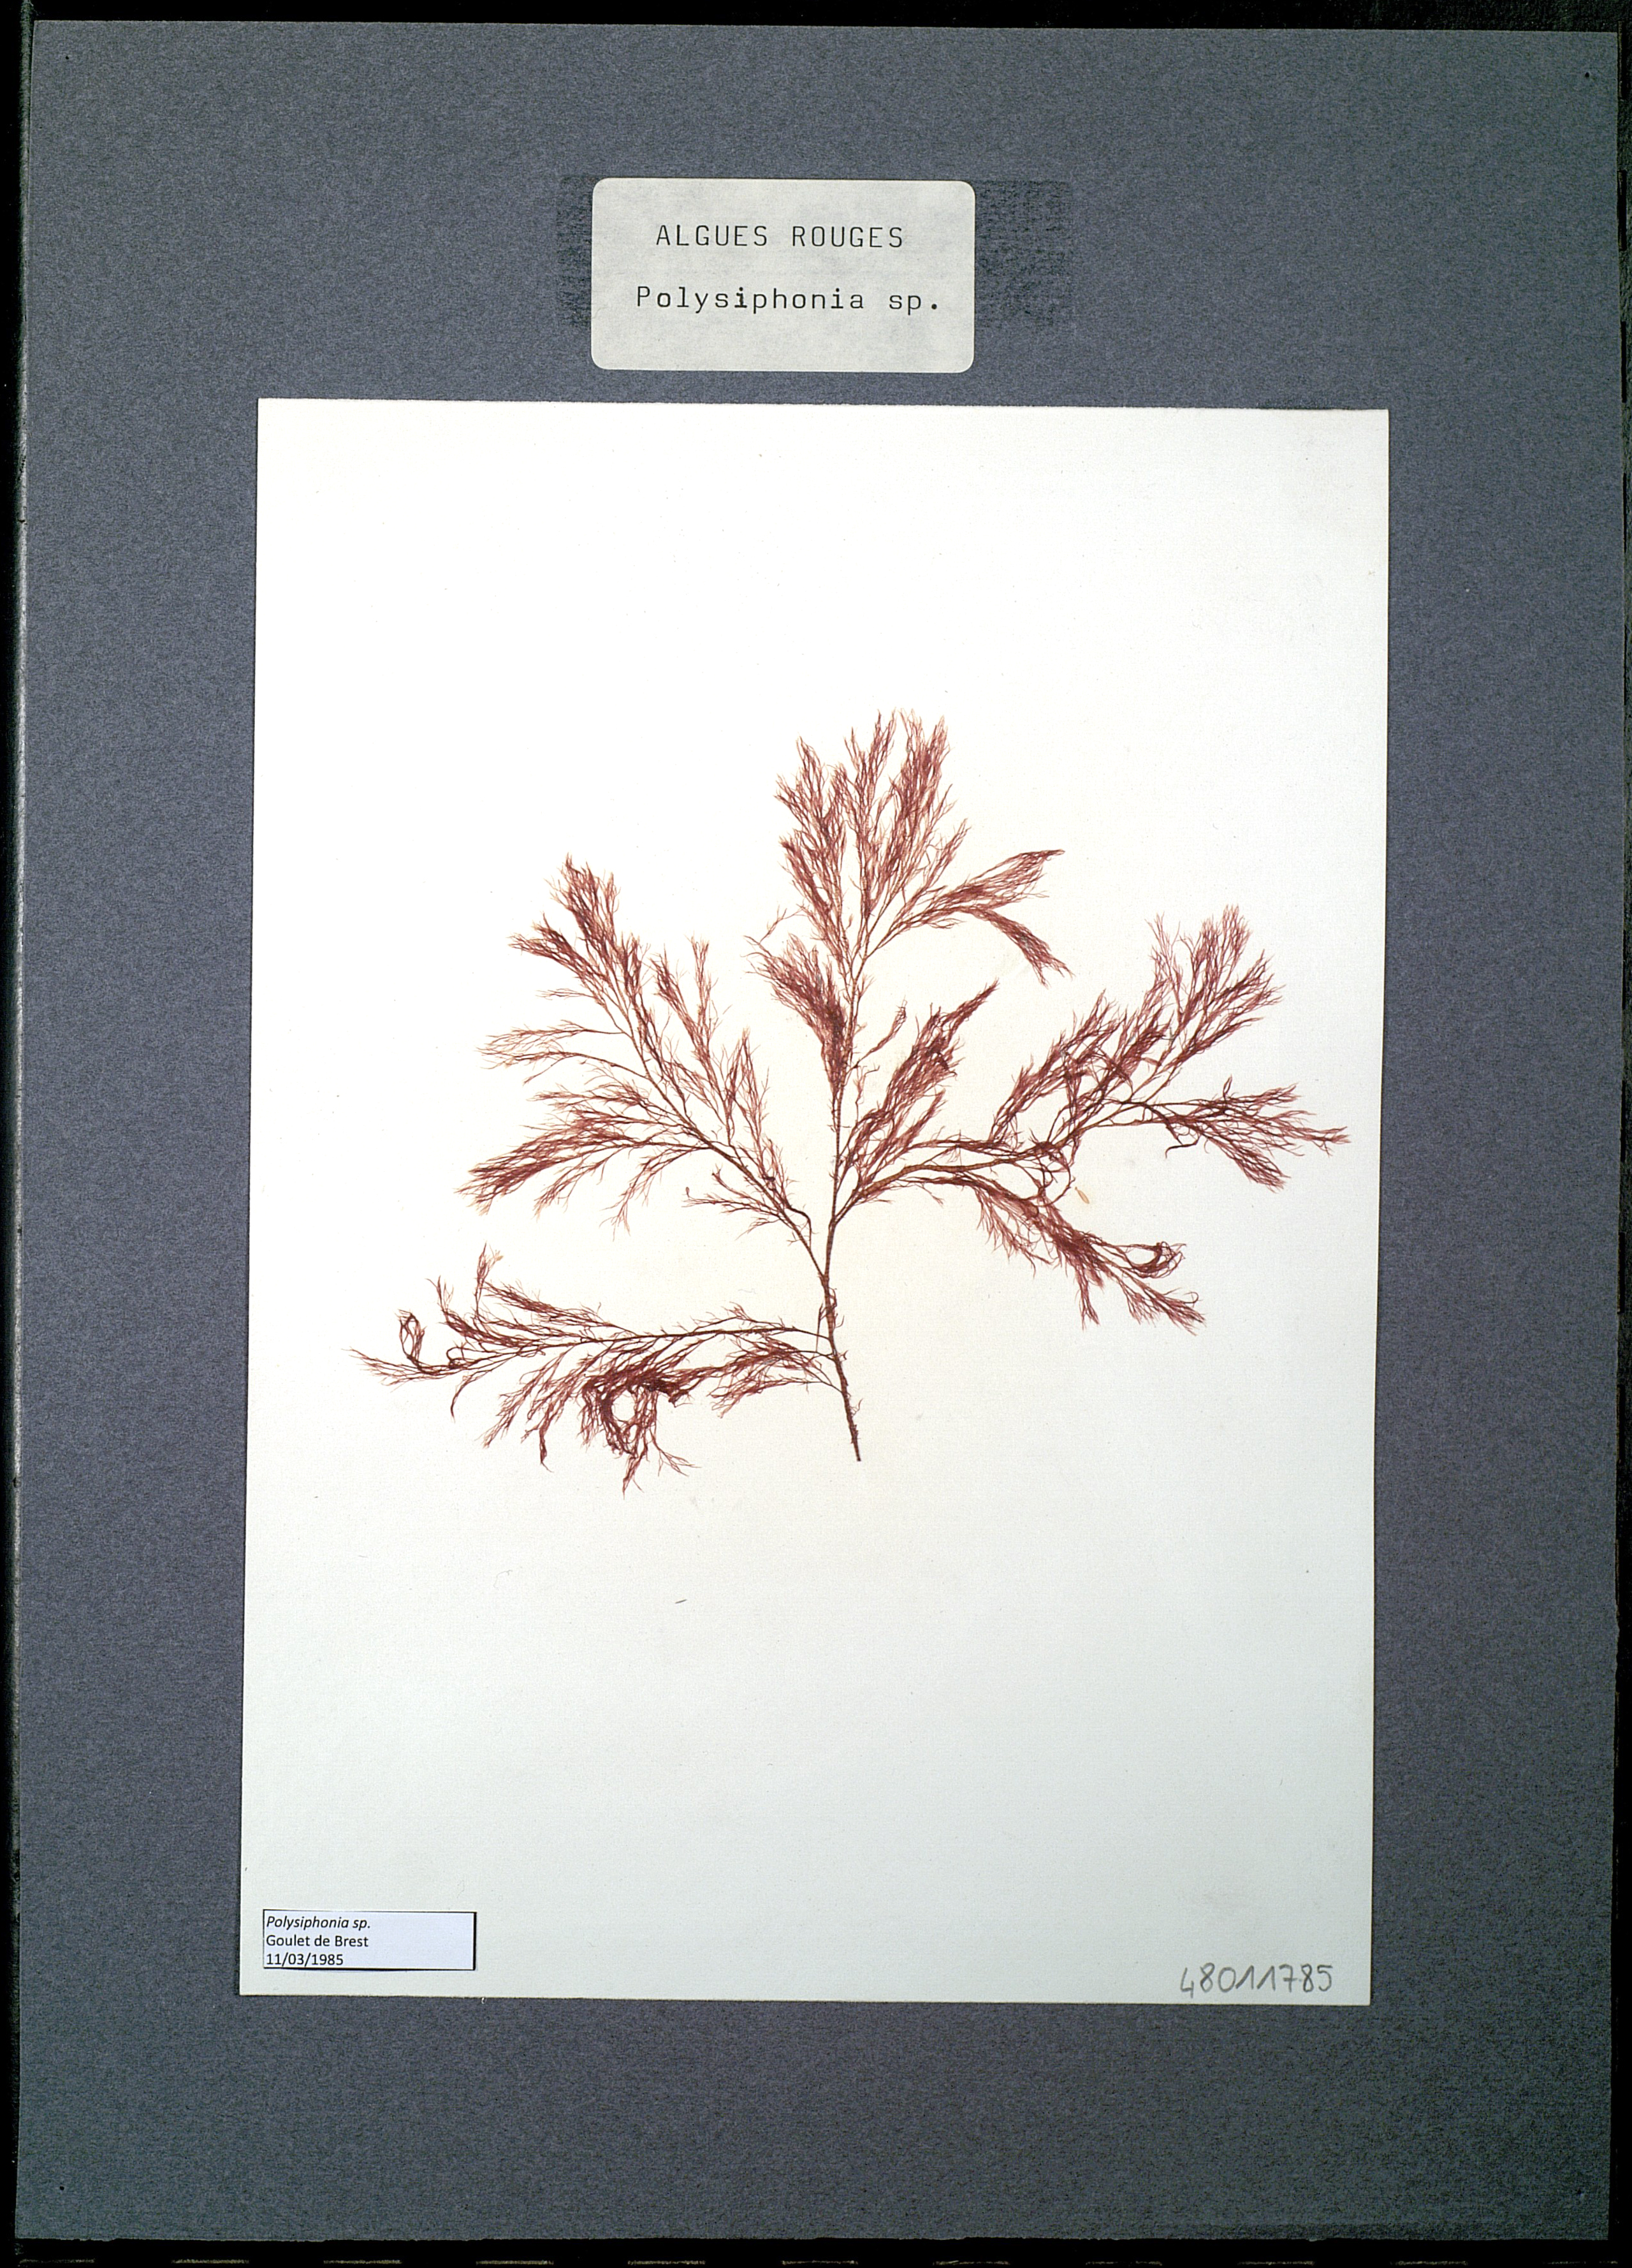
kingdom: Plantae
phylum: Rhodophyta
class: Florideophyceae
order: Ceramiales
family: Rhodomelaceae
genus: Polysiphonia
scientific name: Polysiphonia
